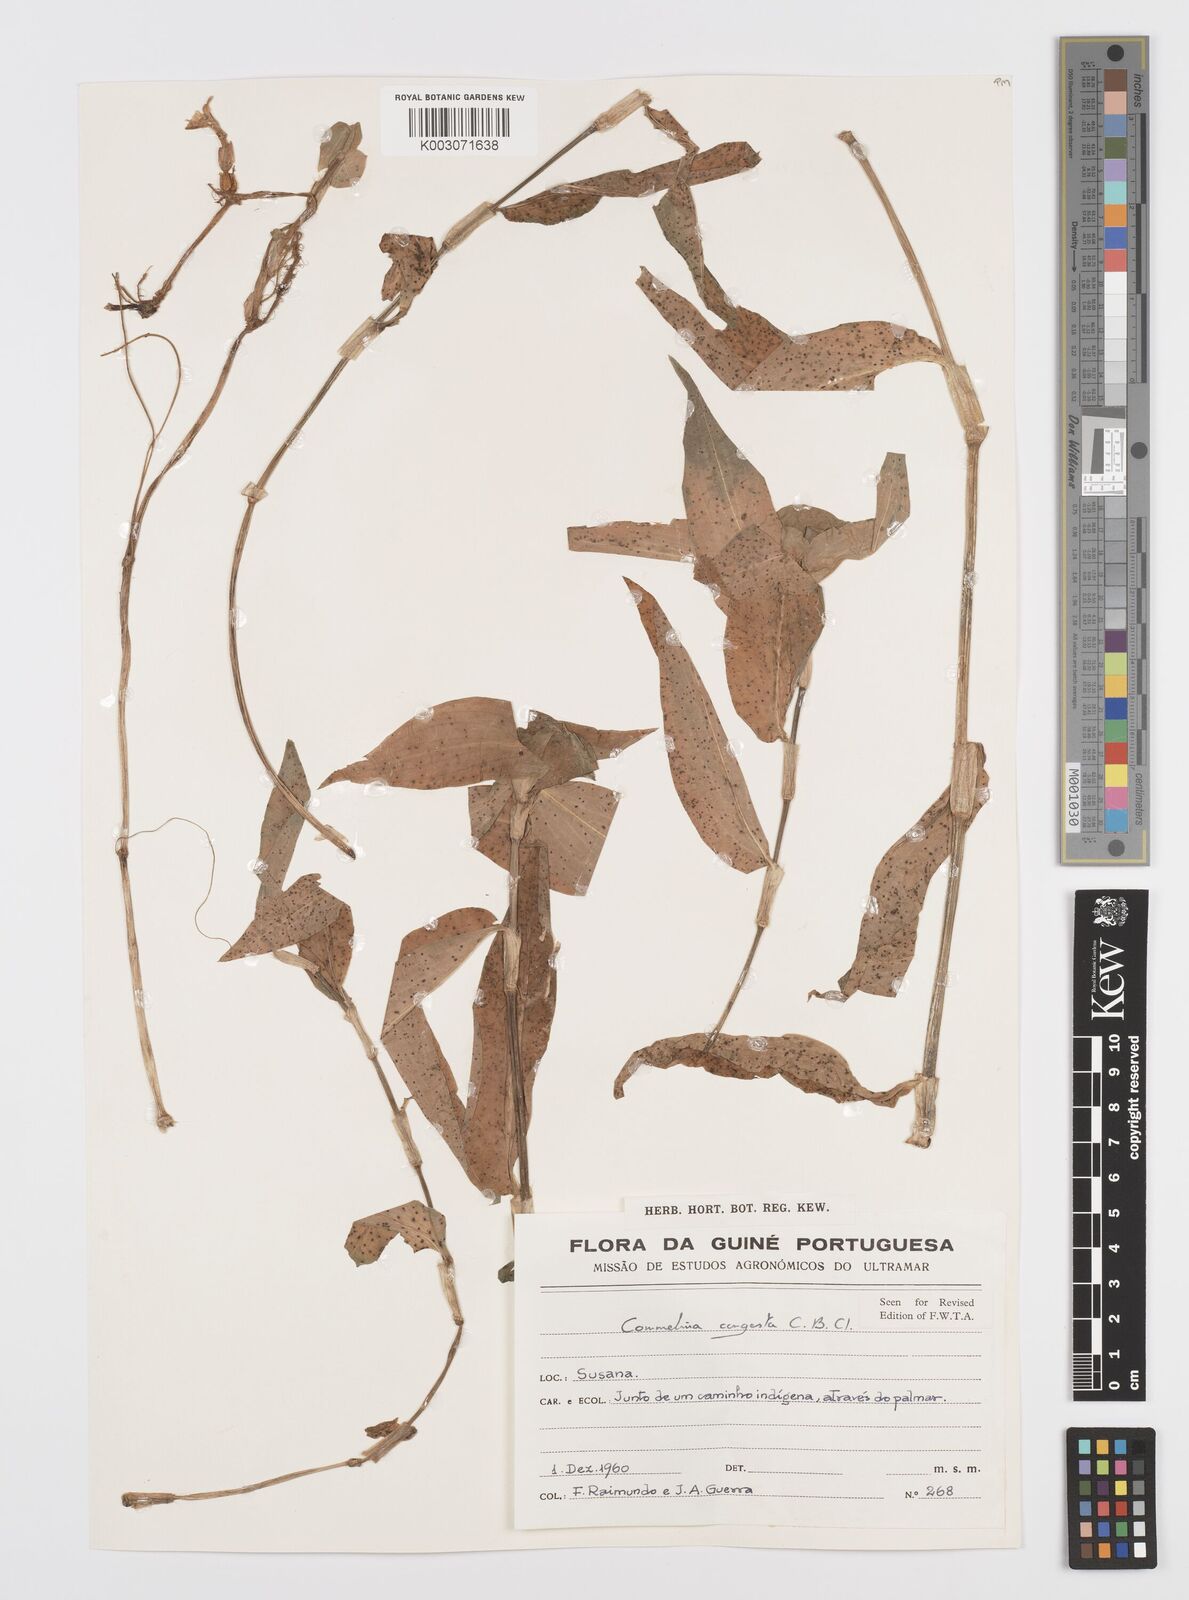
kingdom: Plantae
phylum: Tracheophyta
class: Liliopsida
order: Commelinales
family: Commelinaceae
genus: Commelina
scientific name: Commelina congesta
